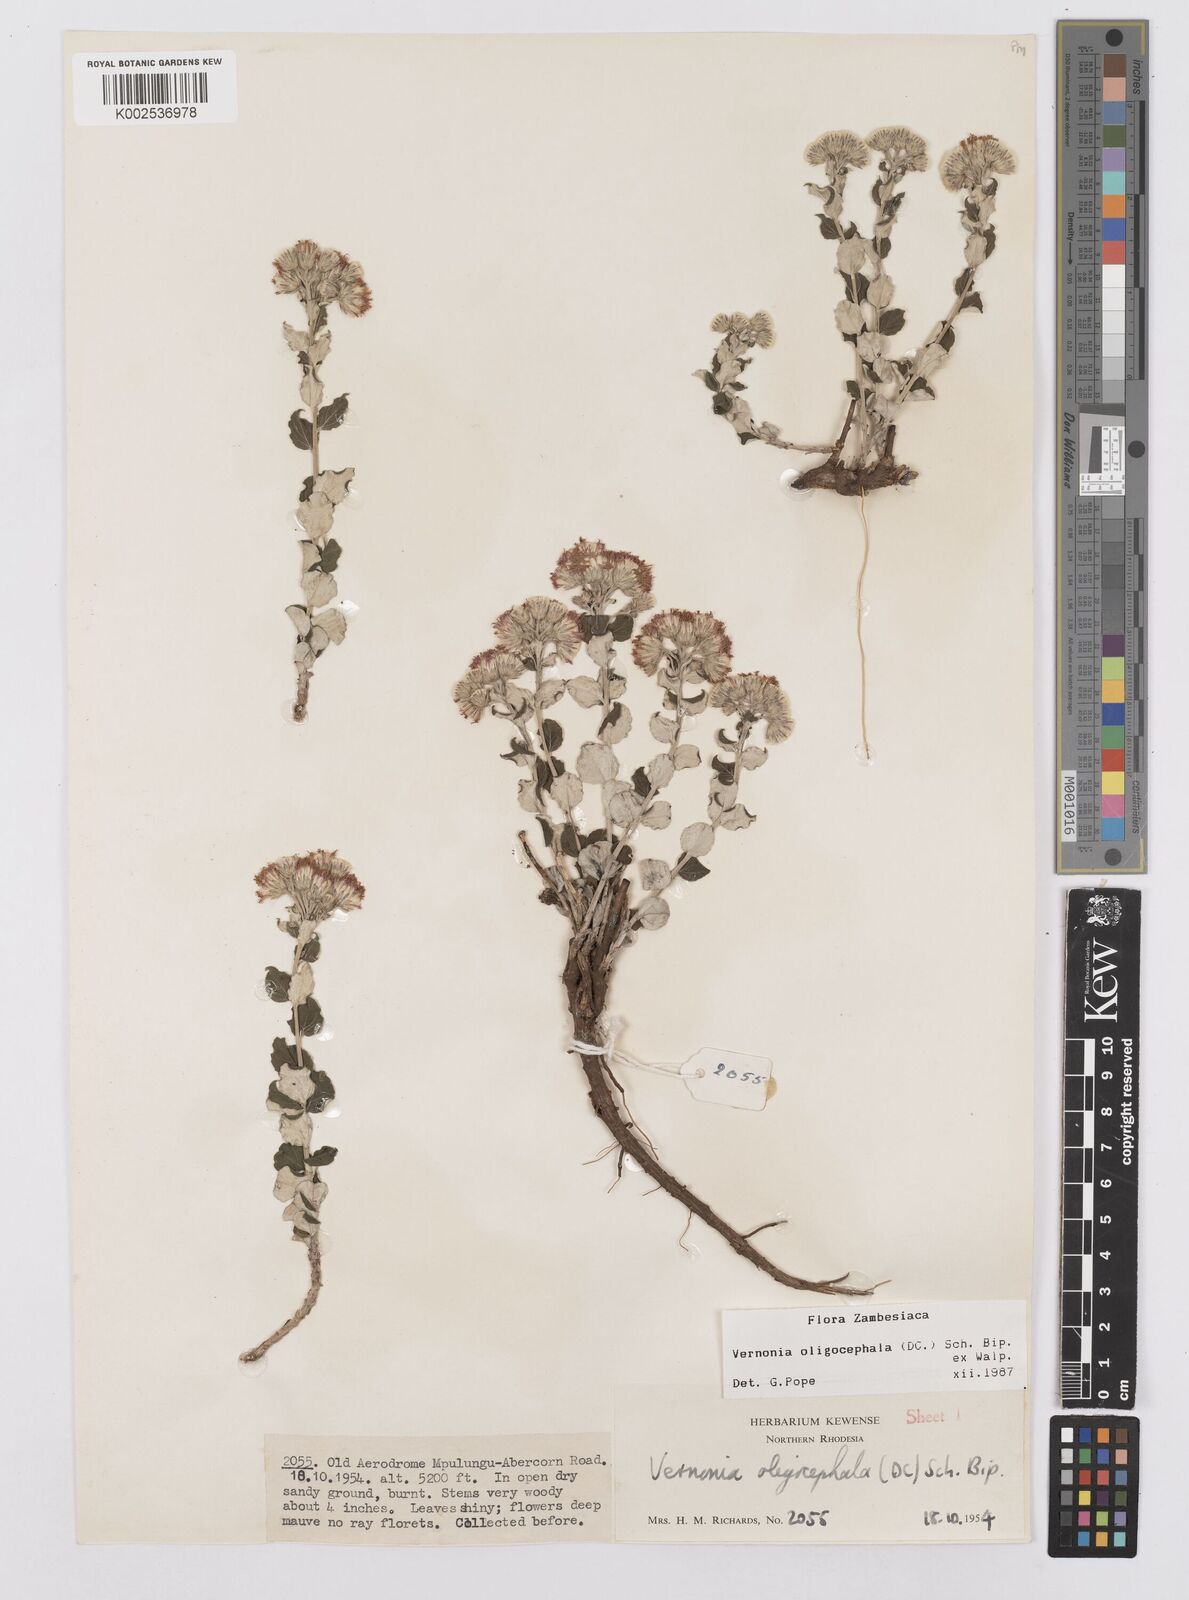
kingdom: Plantae
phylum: Tracheophyta
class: Magnoliopsida
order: Asterales
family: Asteraceae
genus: Hilliardiella
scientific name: Hilliardiella oligocephala
